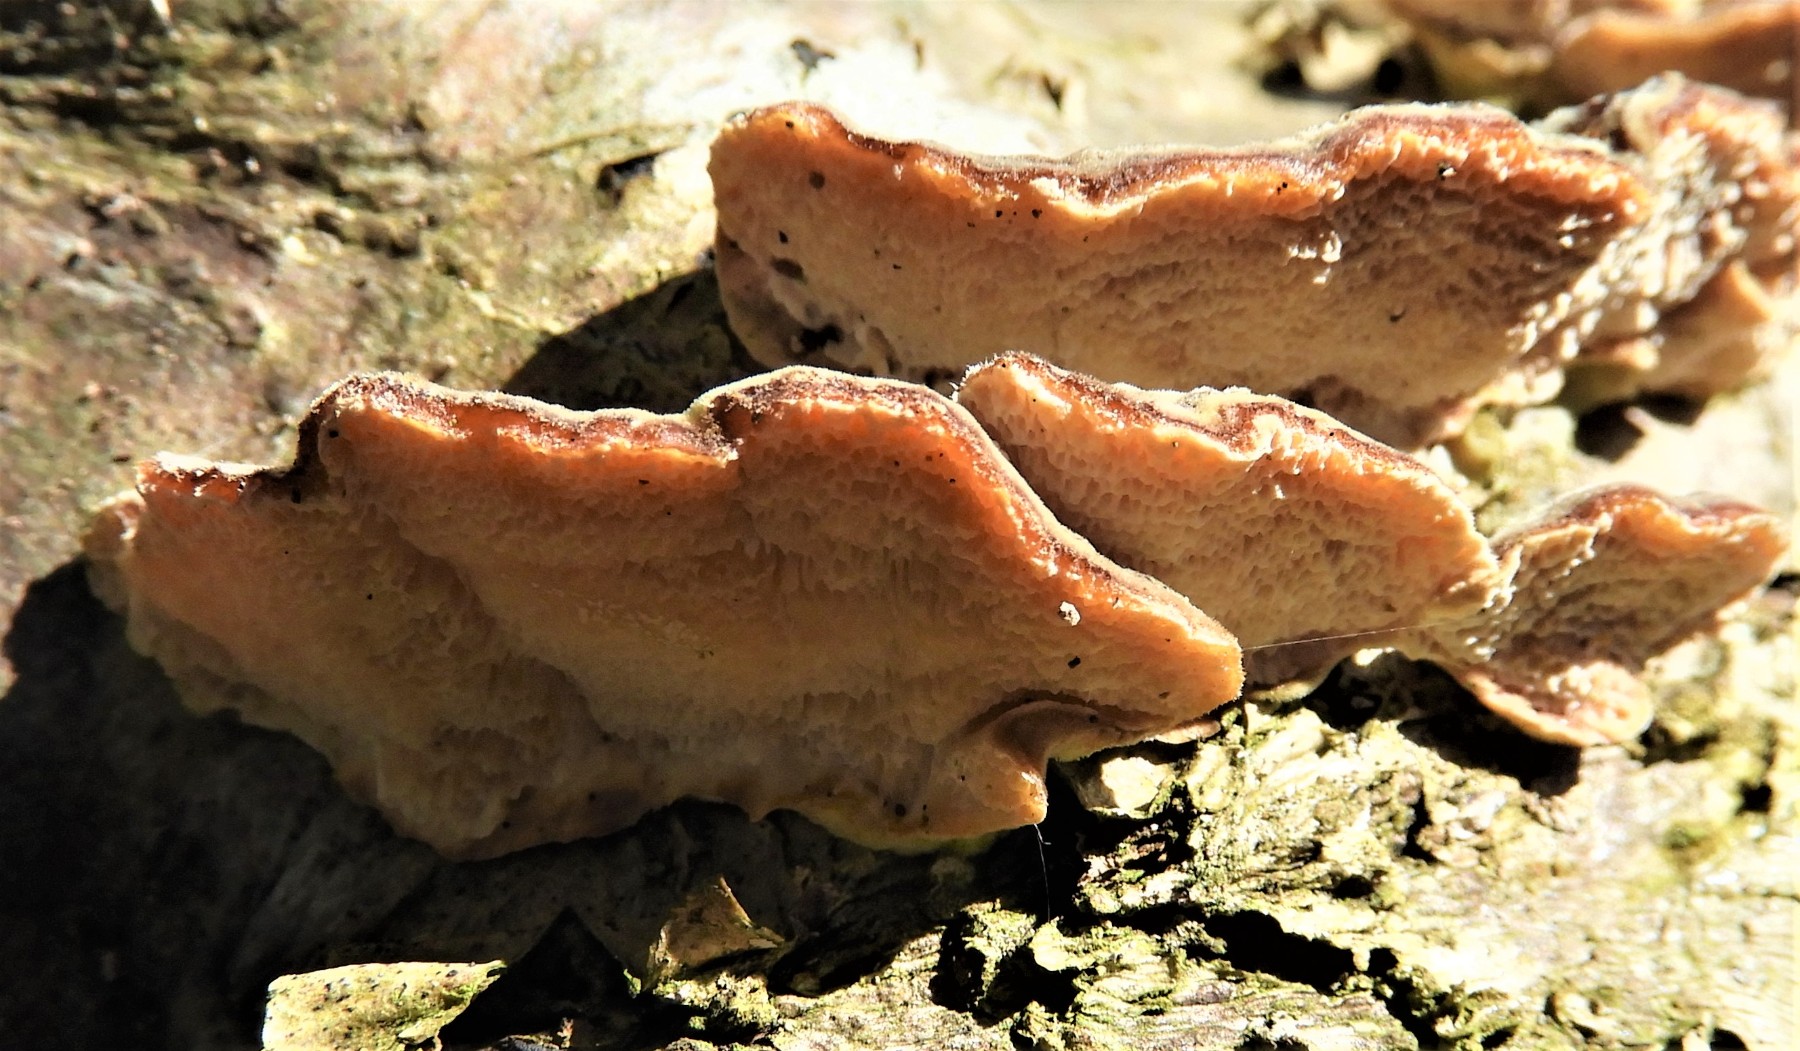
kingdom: Fungi
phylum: Basidiomycota
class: Agaricomycetes
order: Polyporales
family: Polyporaceae
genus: Trametes
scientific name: Trametes versicolor
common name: broget læderporesvamp
